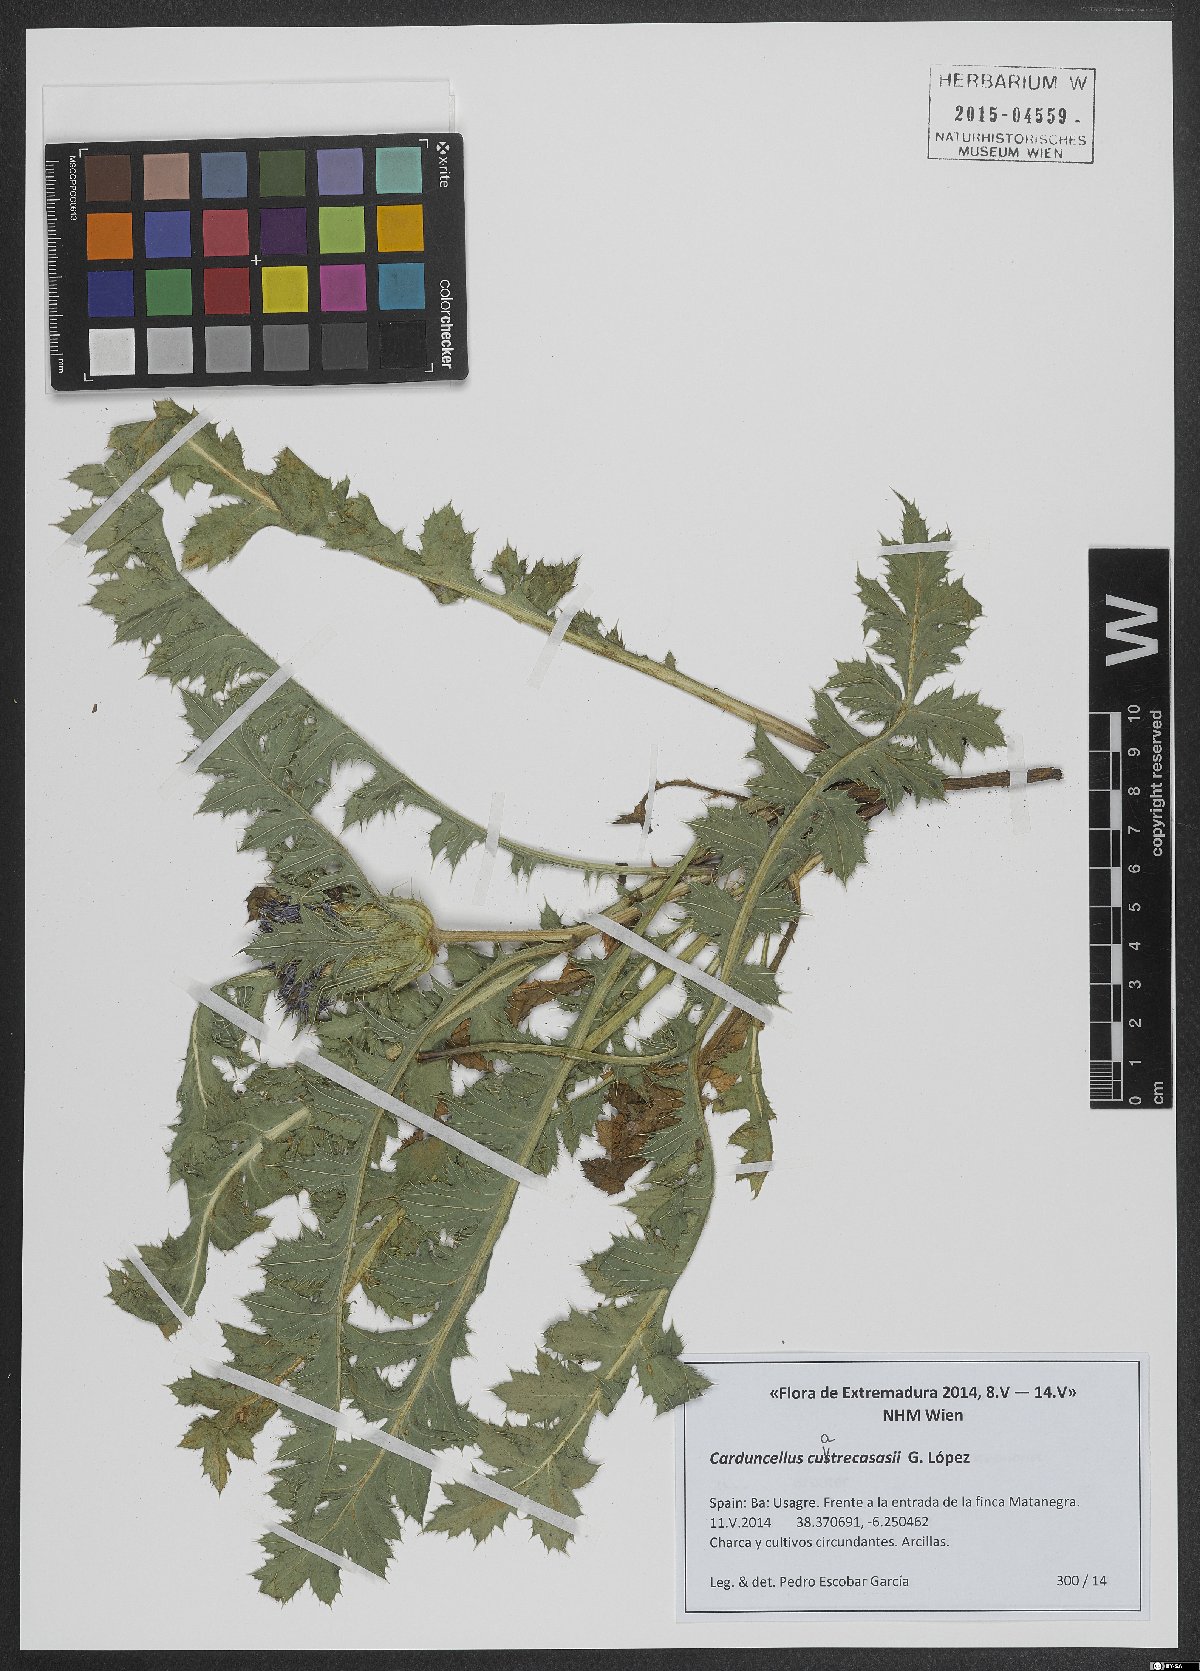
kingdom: Plantae
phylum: Tracheophyta
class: Magnoliopsida
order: Asterales
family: Asteraceae
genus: Carduncellus
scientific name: Carduncellus hispanicus
